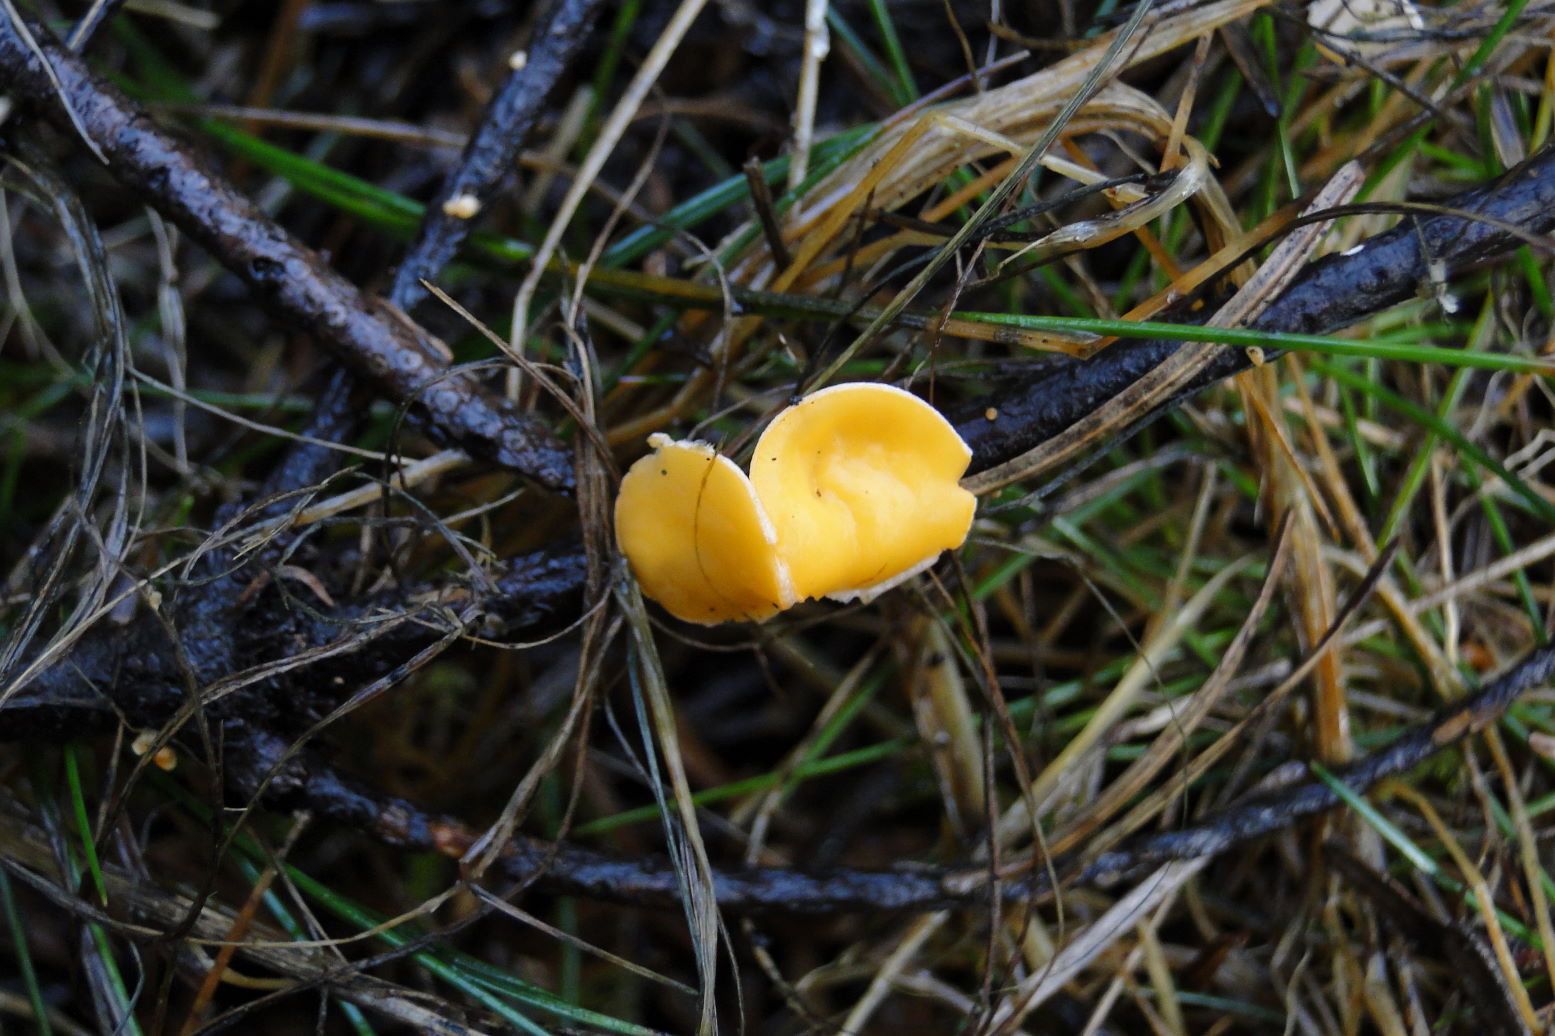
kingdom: Fungi
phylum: Ascomycota
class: Pezizomycetes
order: Pezizales
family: Sarcoscyphaceae
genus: Pithya
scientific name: Pithya vulgaris
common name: stor dukatbæger
